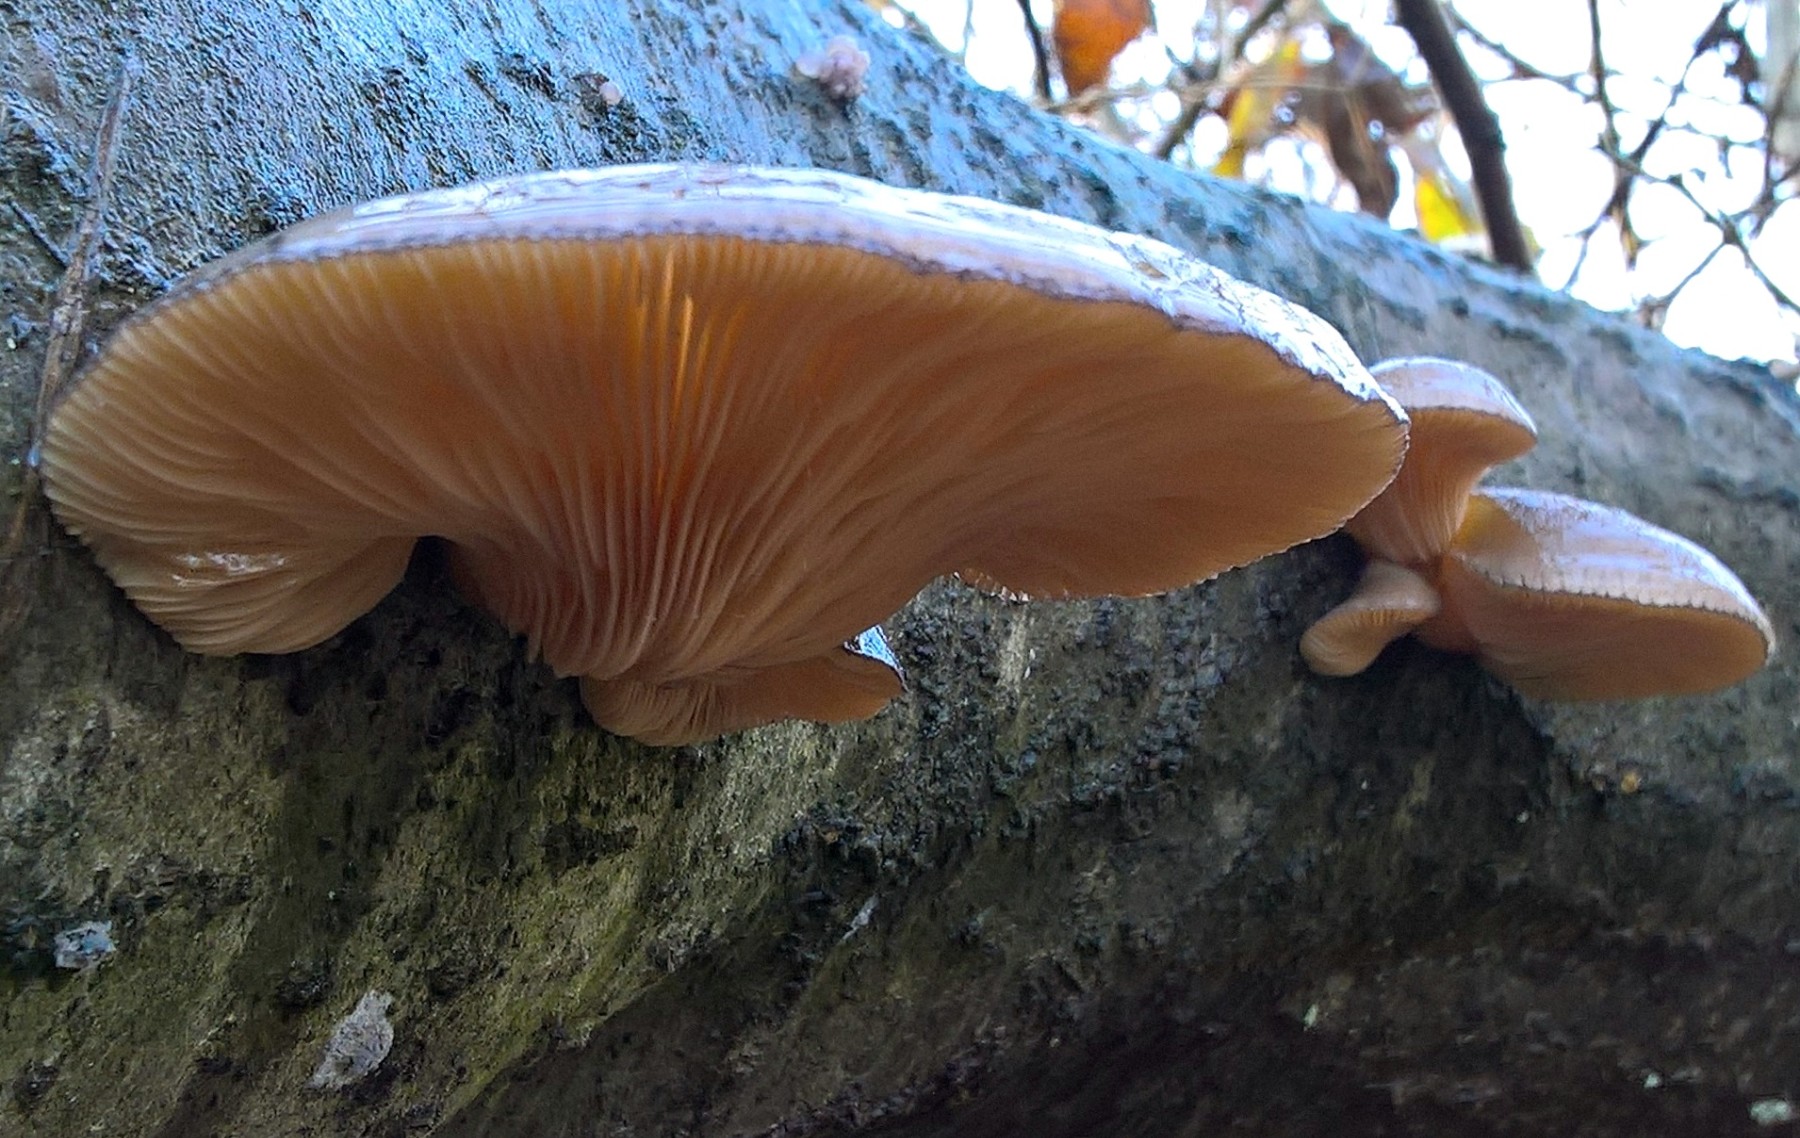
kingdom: Fungi
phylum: Basidiomycota
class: Agaricomycetes
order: Agaricales
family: Sarcomyxaceae
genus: Sarcomyxa
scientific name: Sarcomyxa serotina
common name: gummihat
